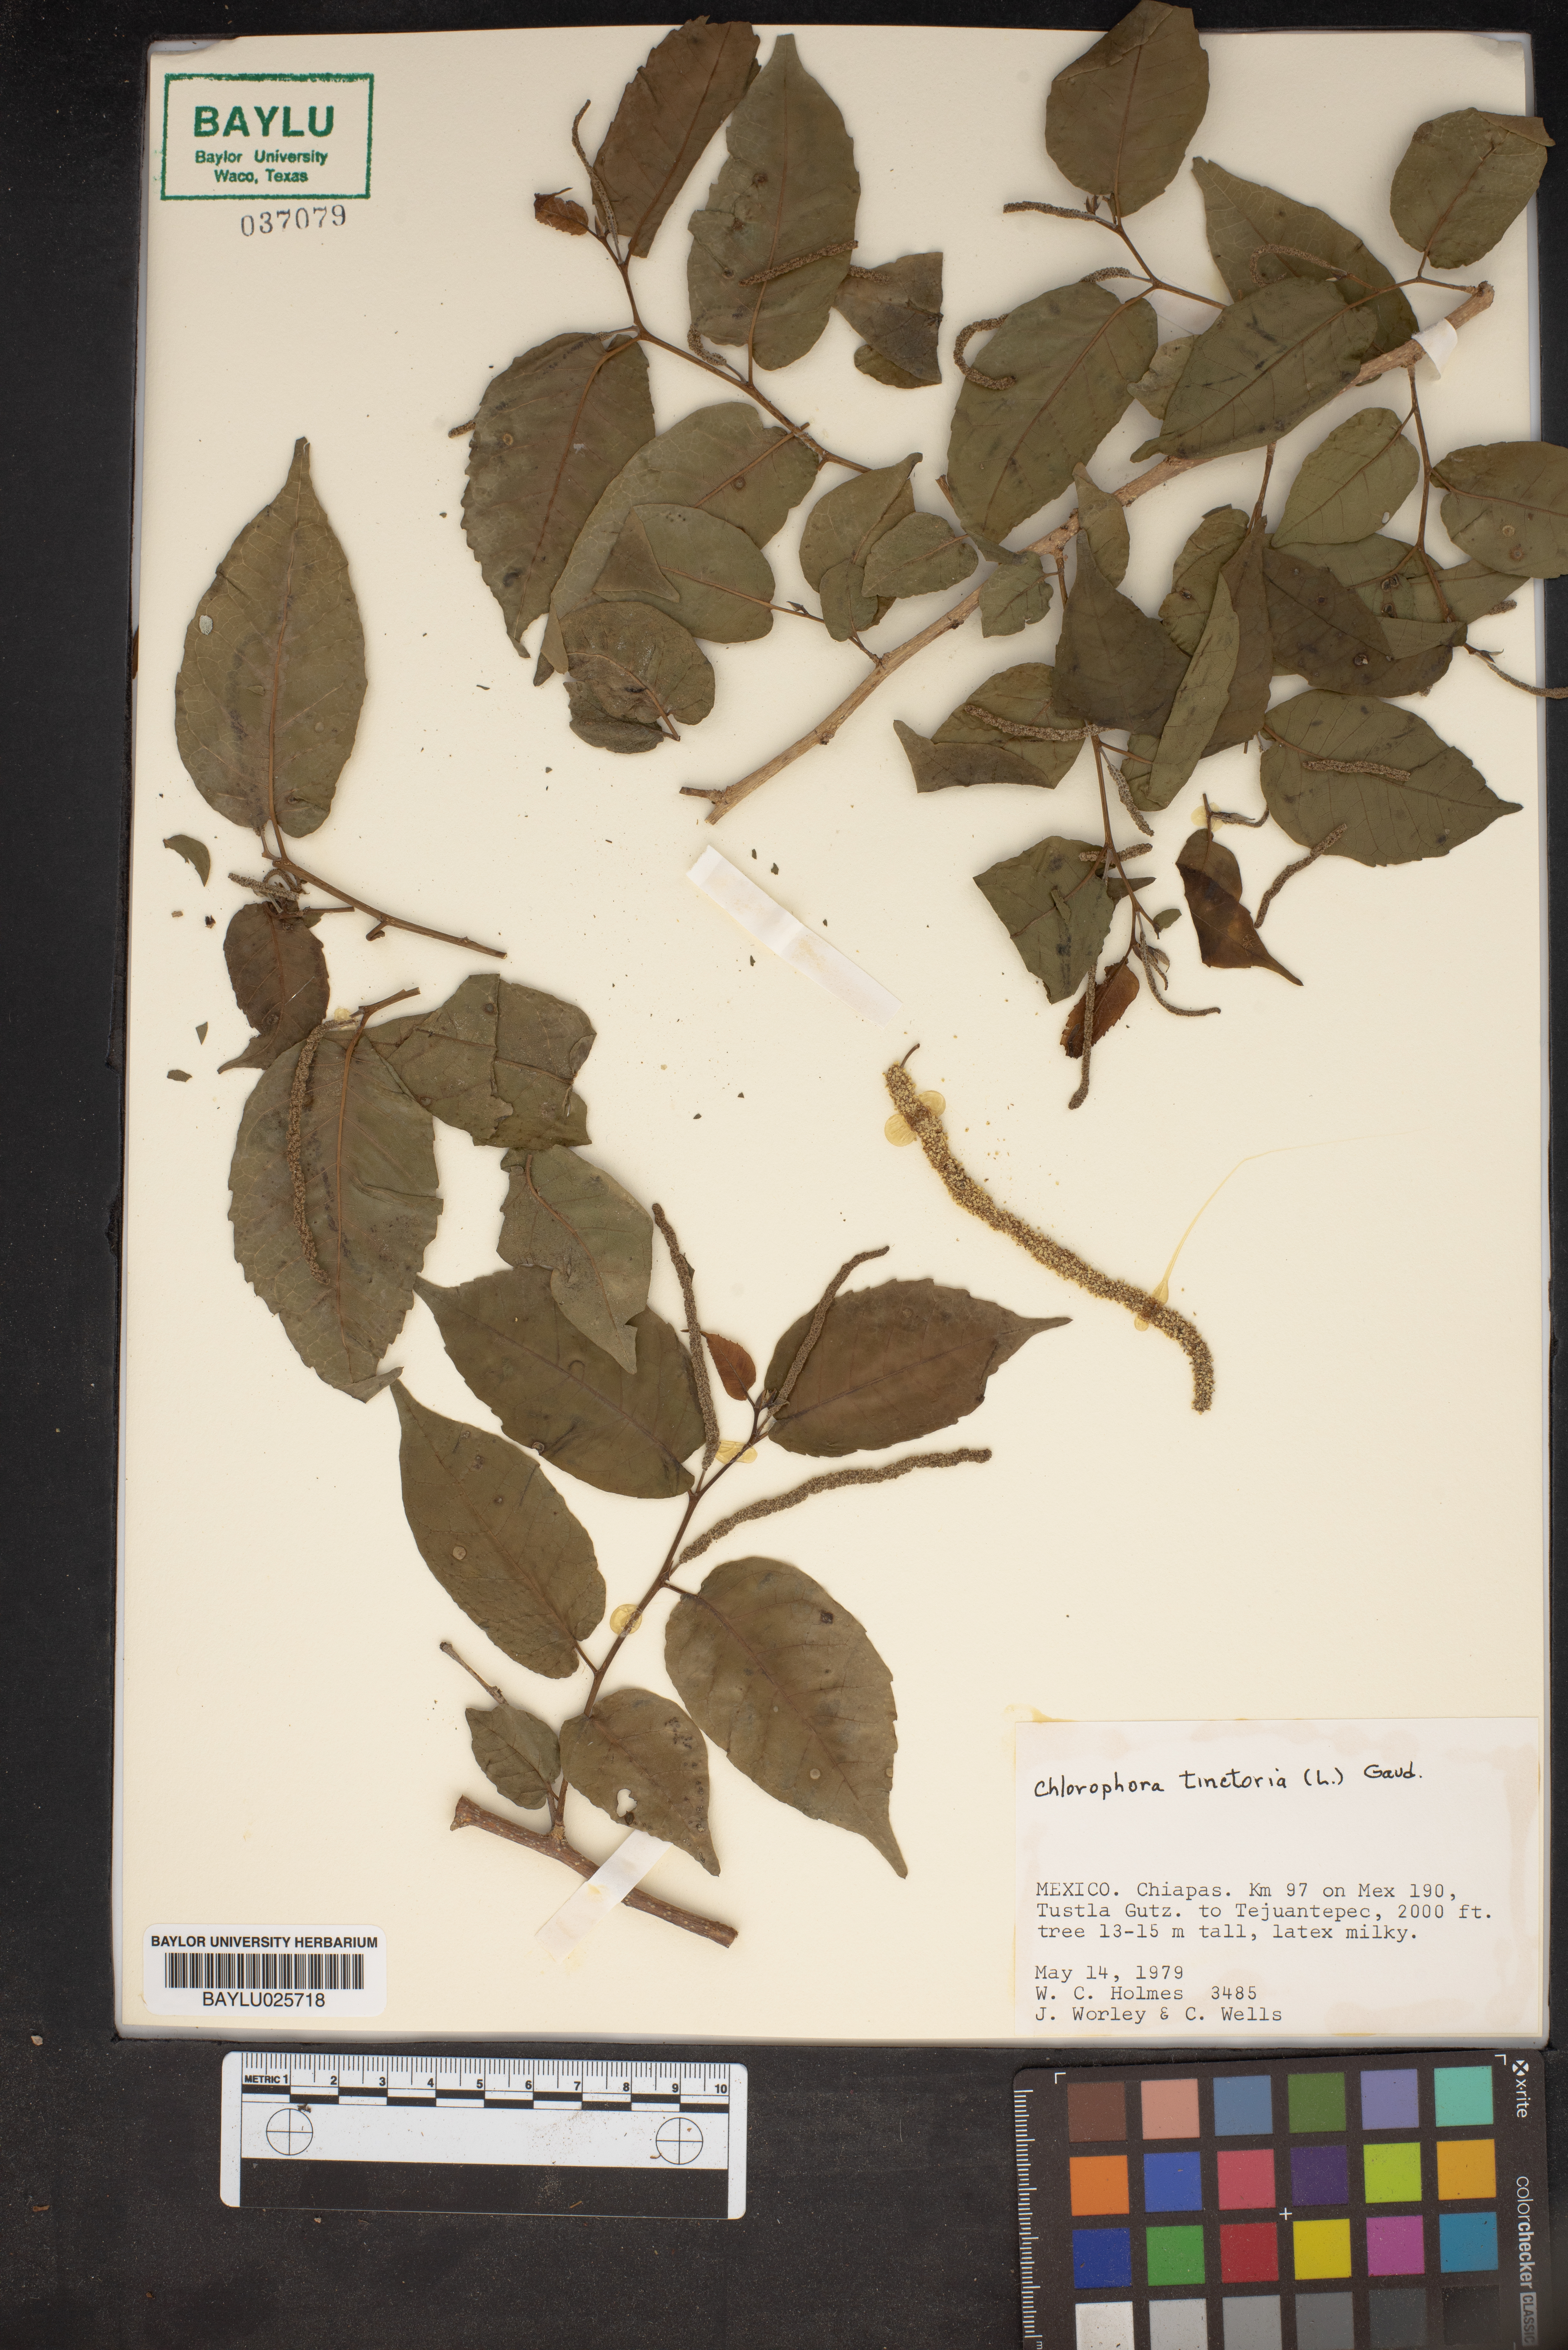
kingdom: Plantae
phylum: Tracheophyta
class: Magnoliopsida
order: Rosales
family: Moraceae
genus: Maclura
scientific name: Maclura tinctoria
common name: Old fustic
